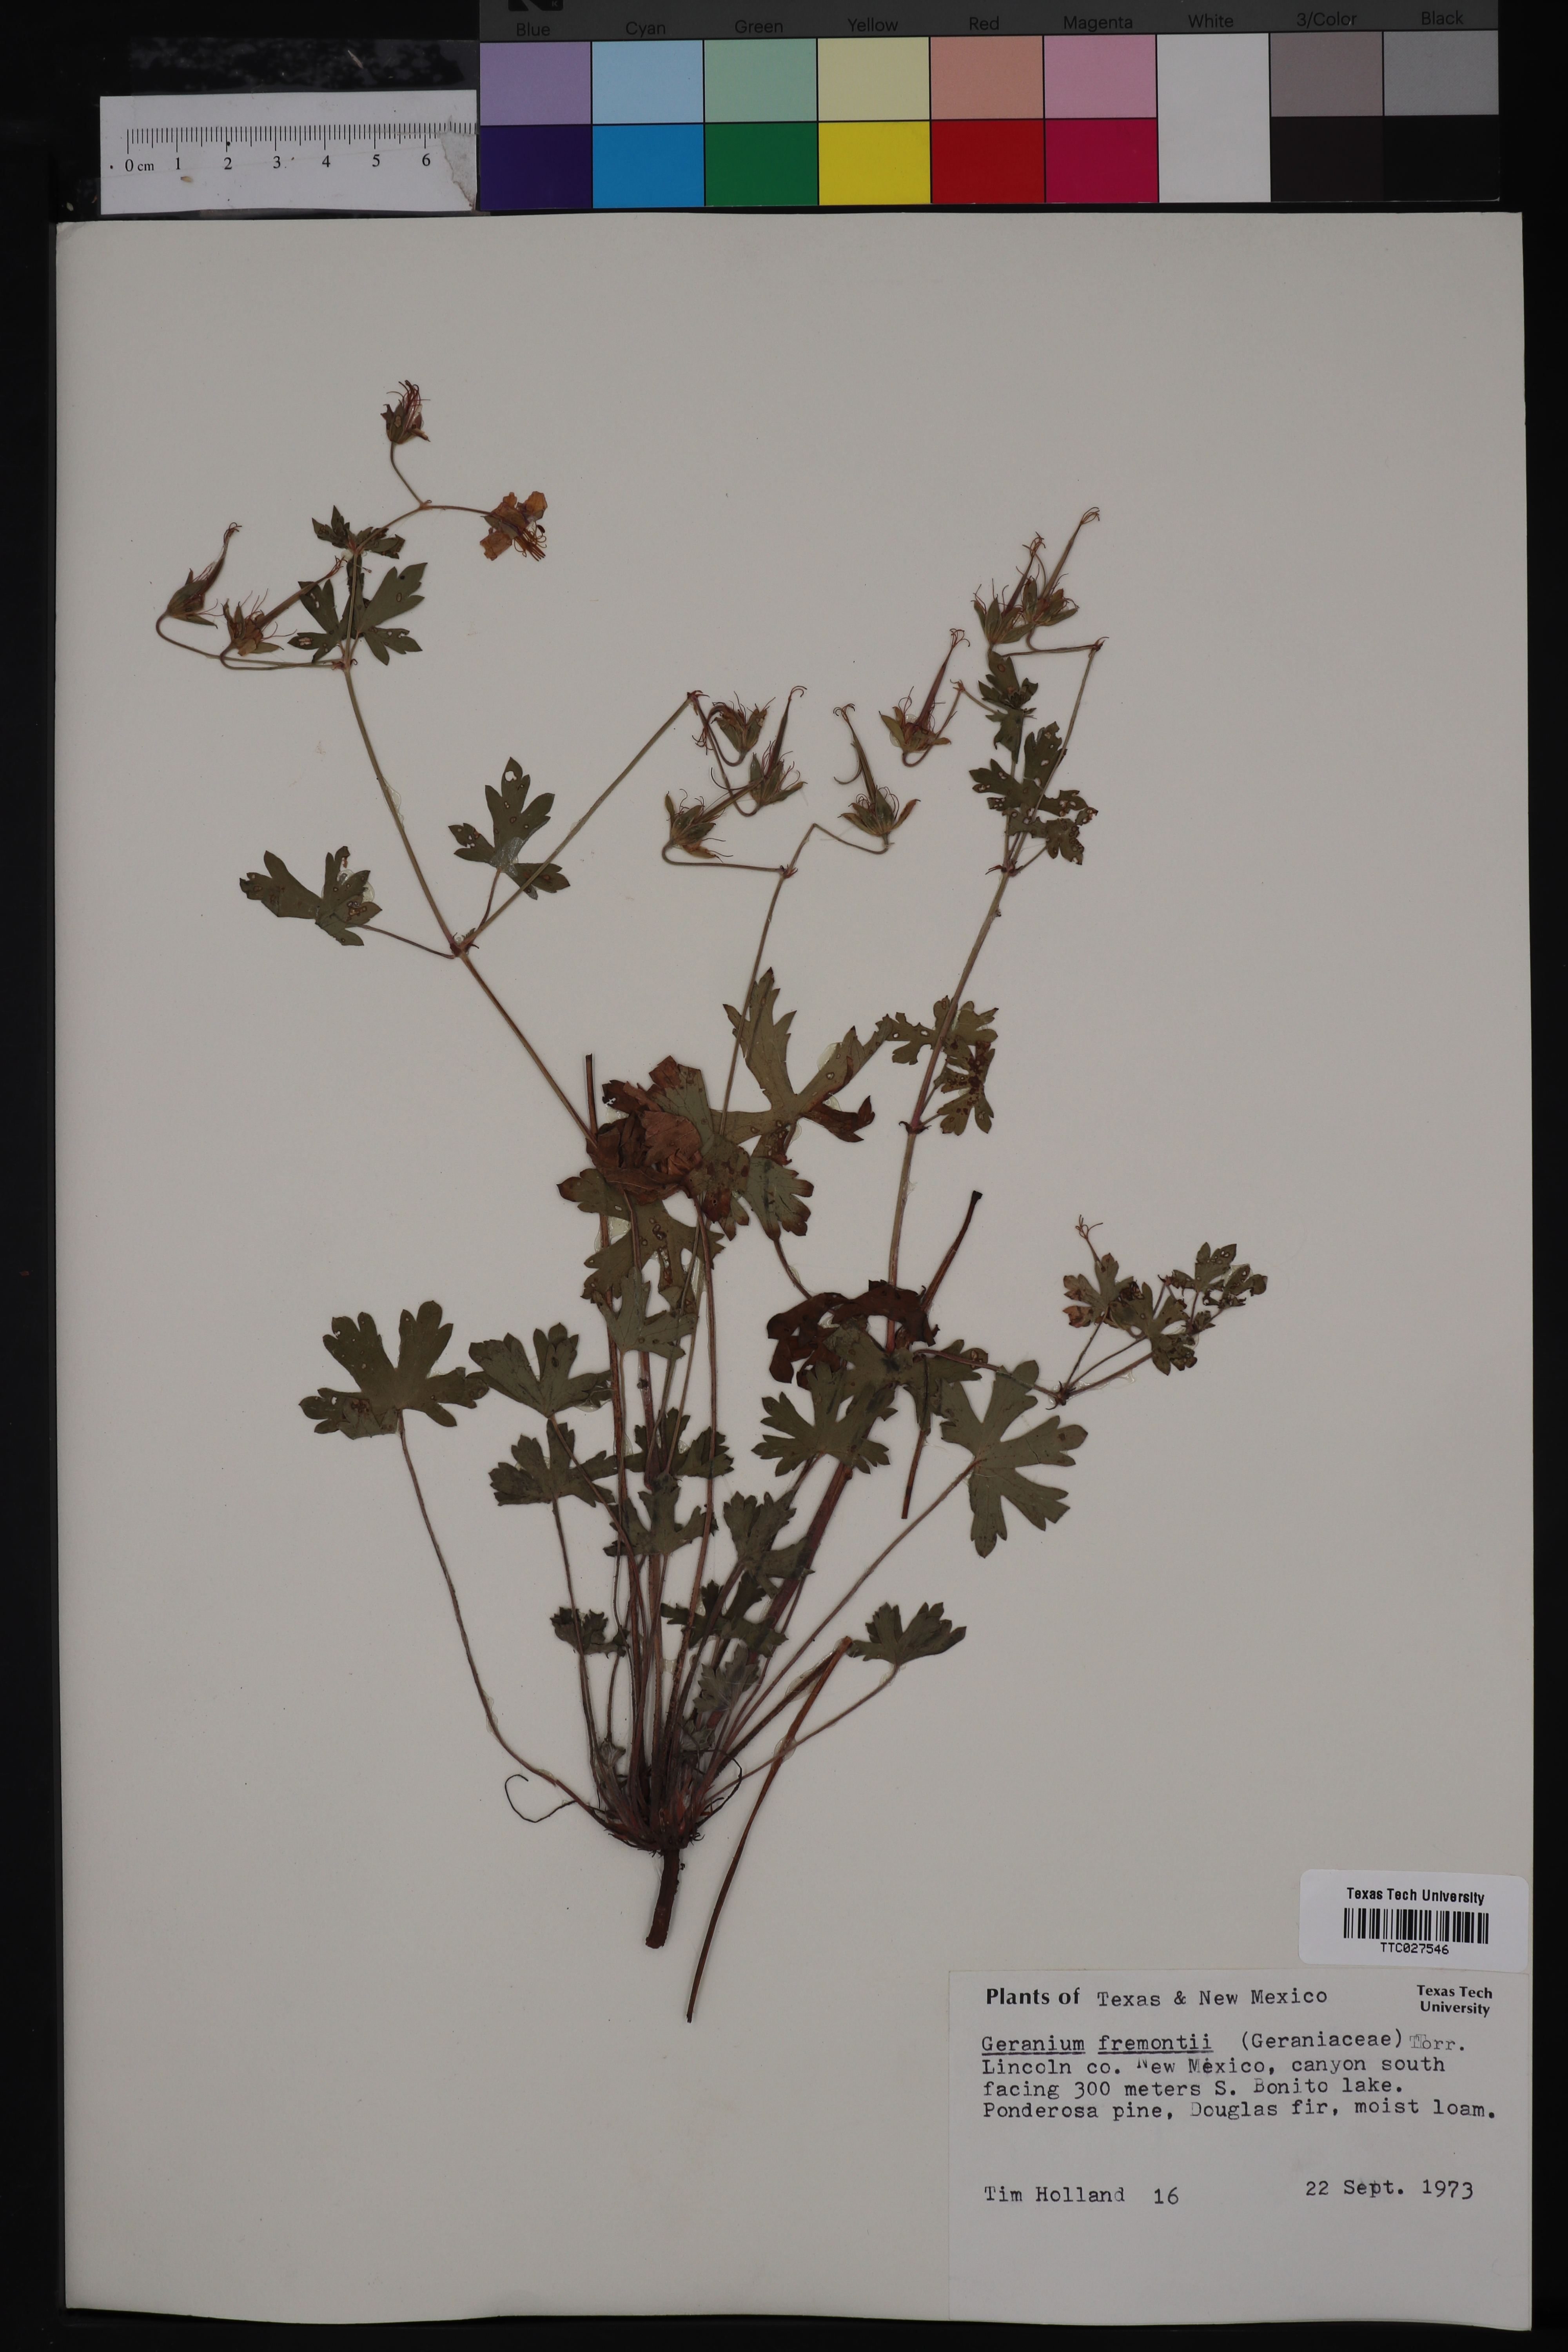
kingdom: Plantae
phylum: Tracheophyta
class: Magnoliopsida
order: Geraniales
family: Geraniaceae
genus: Geranium
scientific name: Geranium caespitosum
